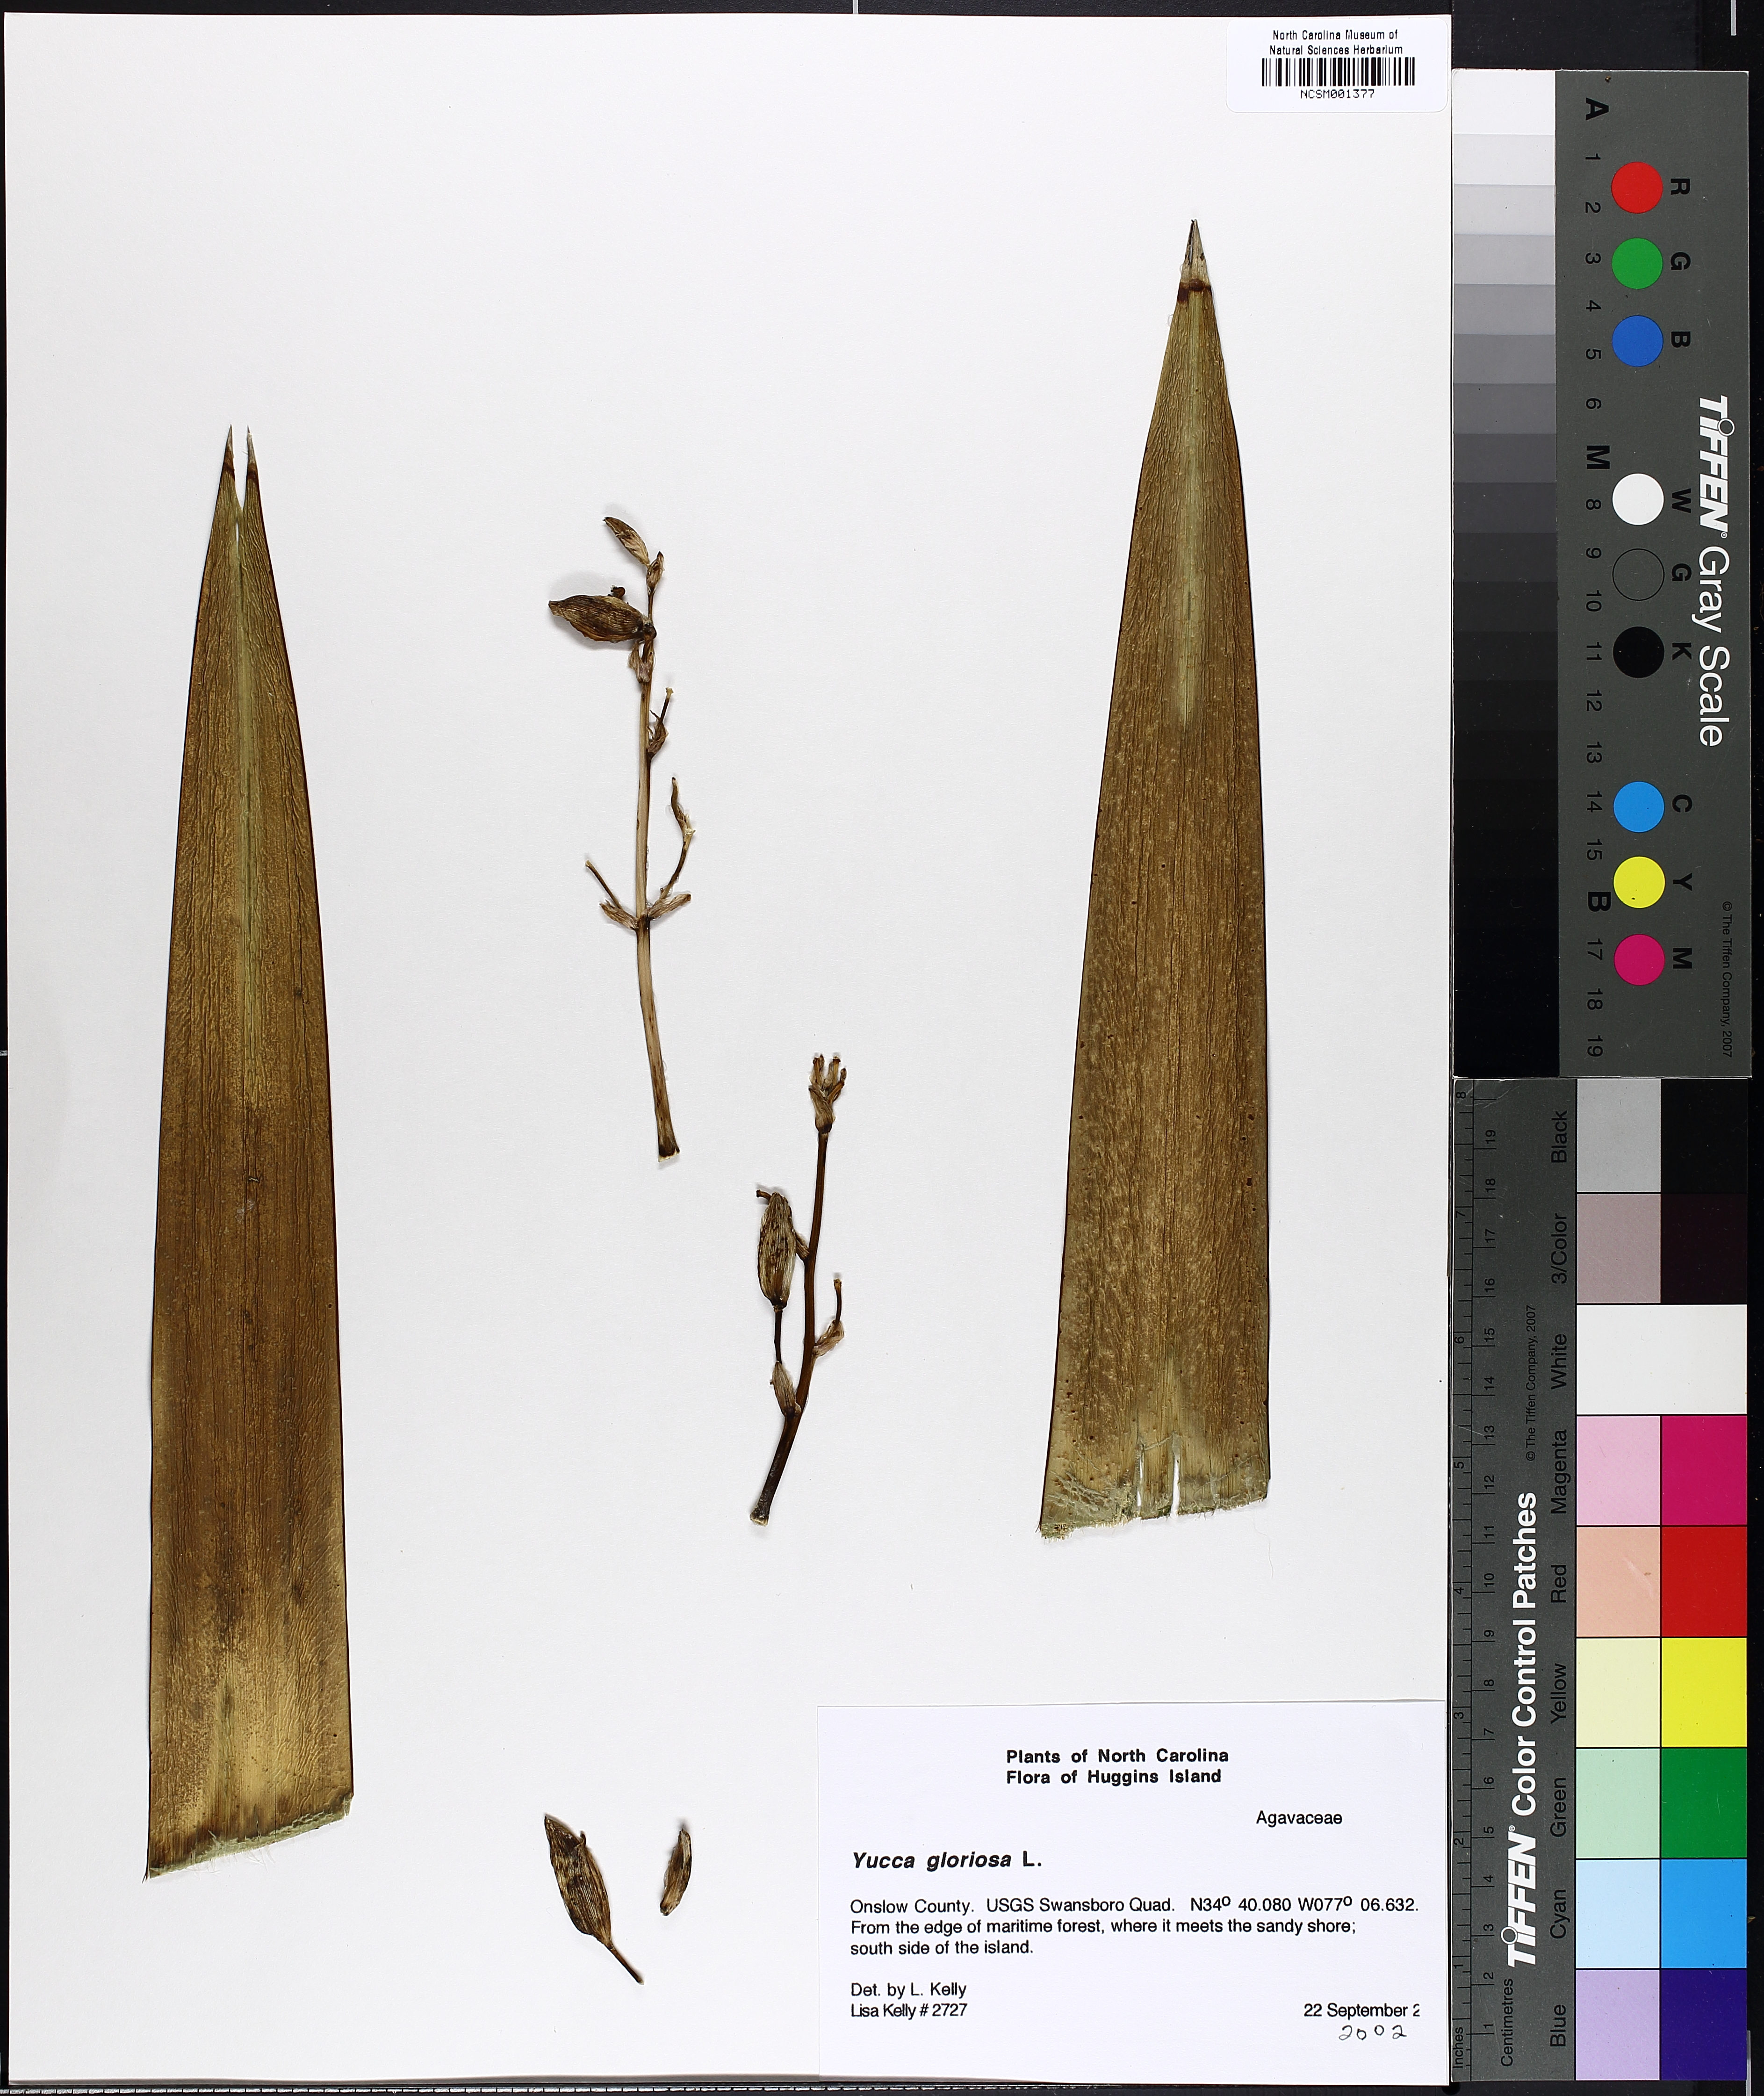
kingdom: Plantae
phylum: Tracheophyta
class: Liliopsida
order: Asparagales
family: Asparagaceae
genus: Yucca
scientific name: Yucca gloriosa
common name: Spanish-dagger
